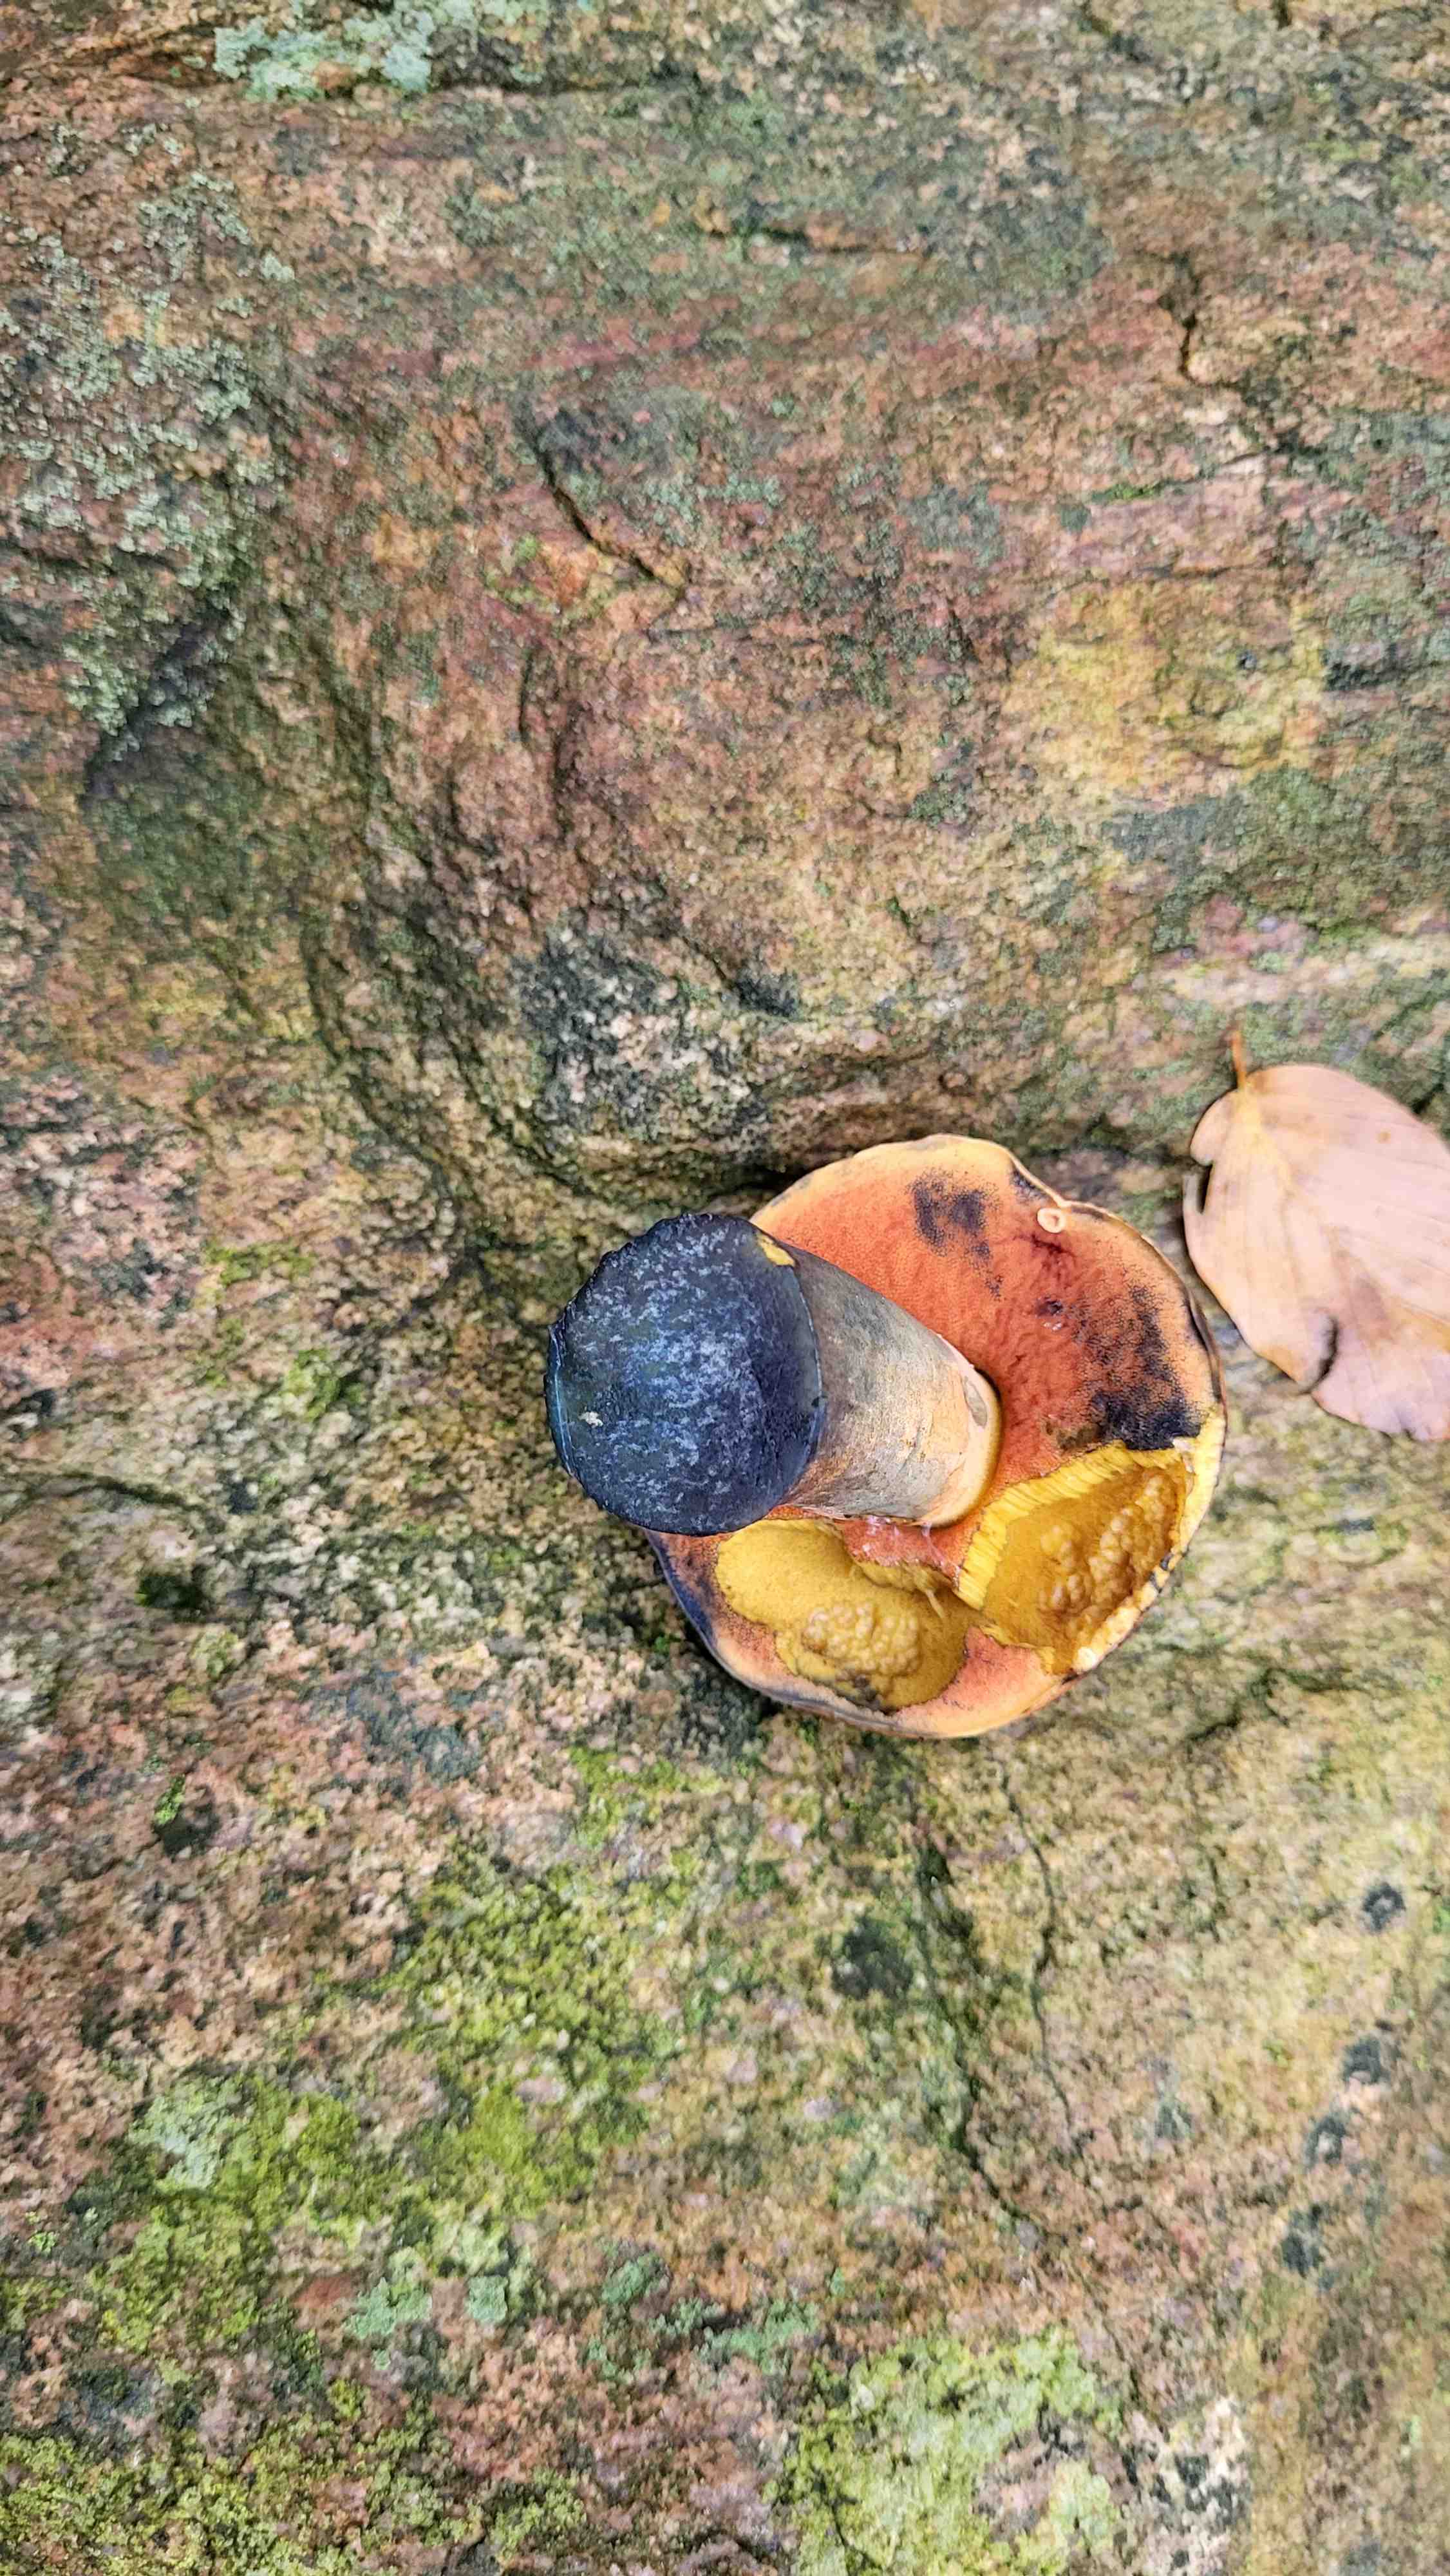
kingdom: Fungi
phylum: Basidiomycota
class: Agaricomycetes
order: Boletales
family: Boletaceae
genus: Neoboletus
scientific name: Neoboletus erythropus
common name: punktstokket indigorørhat
